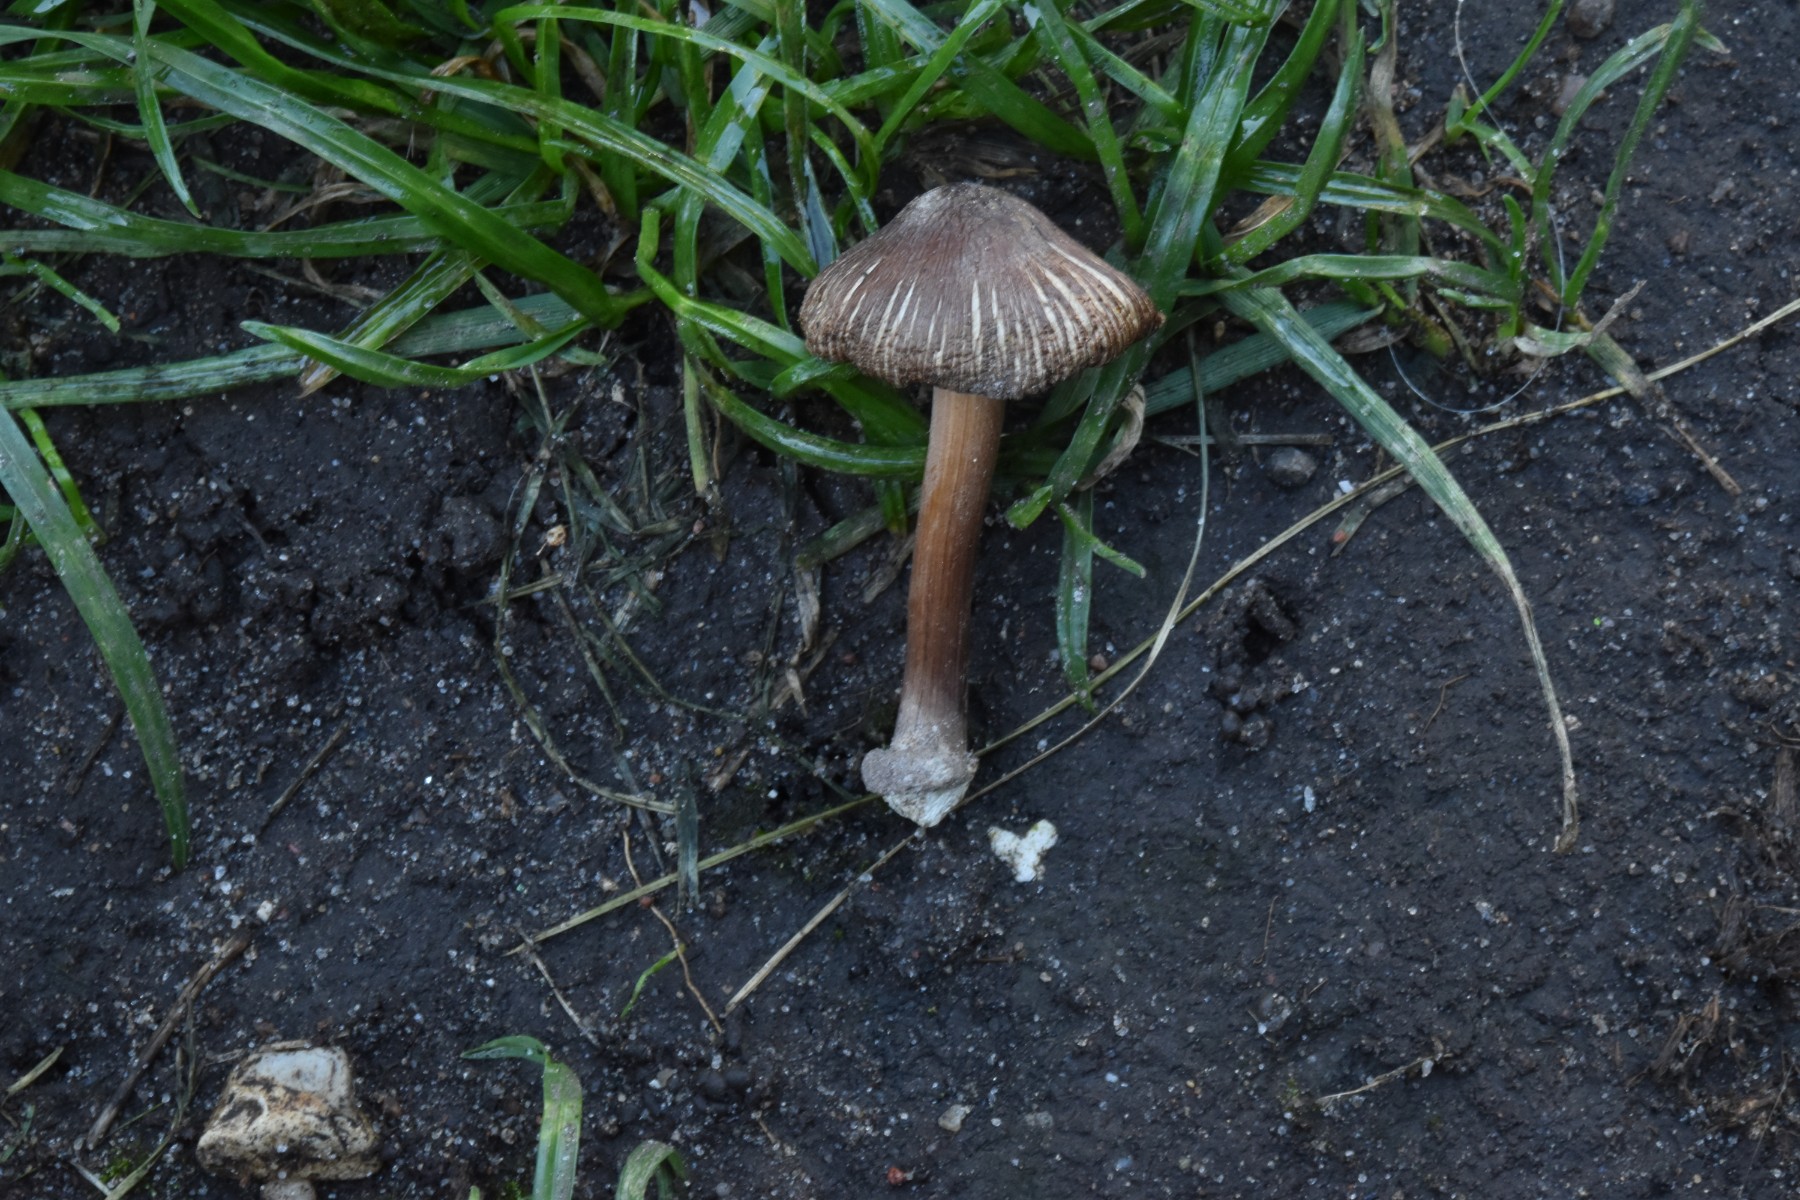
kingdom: Fungi
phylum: Basidiomycota
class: Agaricomycetes
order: Agaricales
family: Inocybaceae
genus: Inocybe
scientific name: Inocybe asterospora
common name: stjernesporet trævlhat
